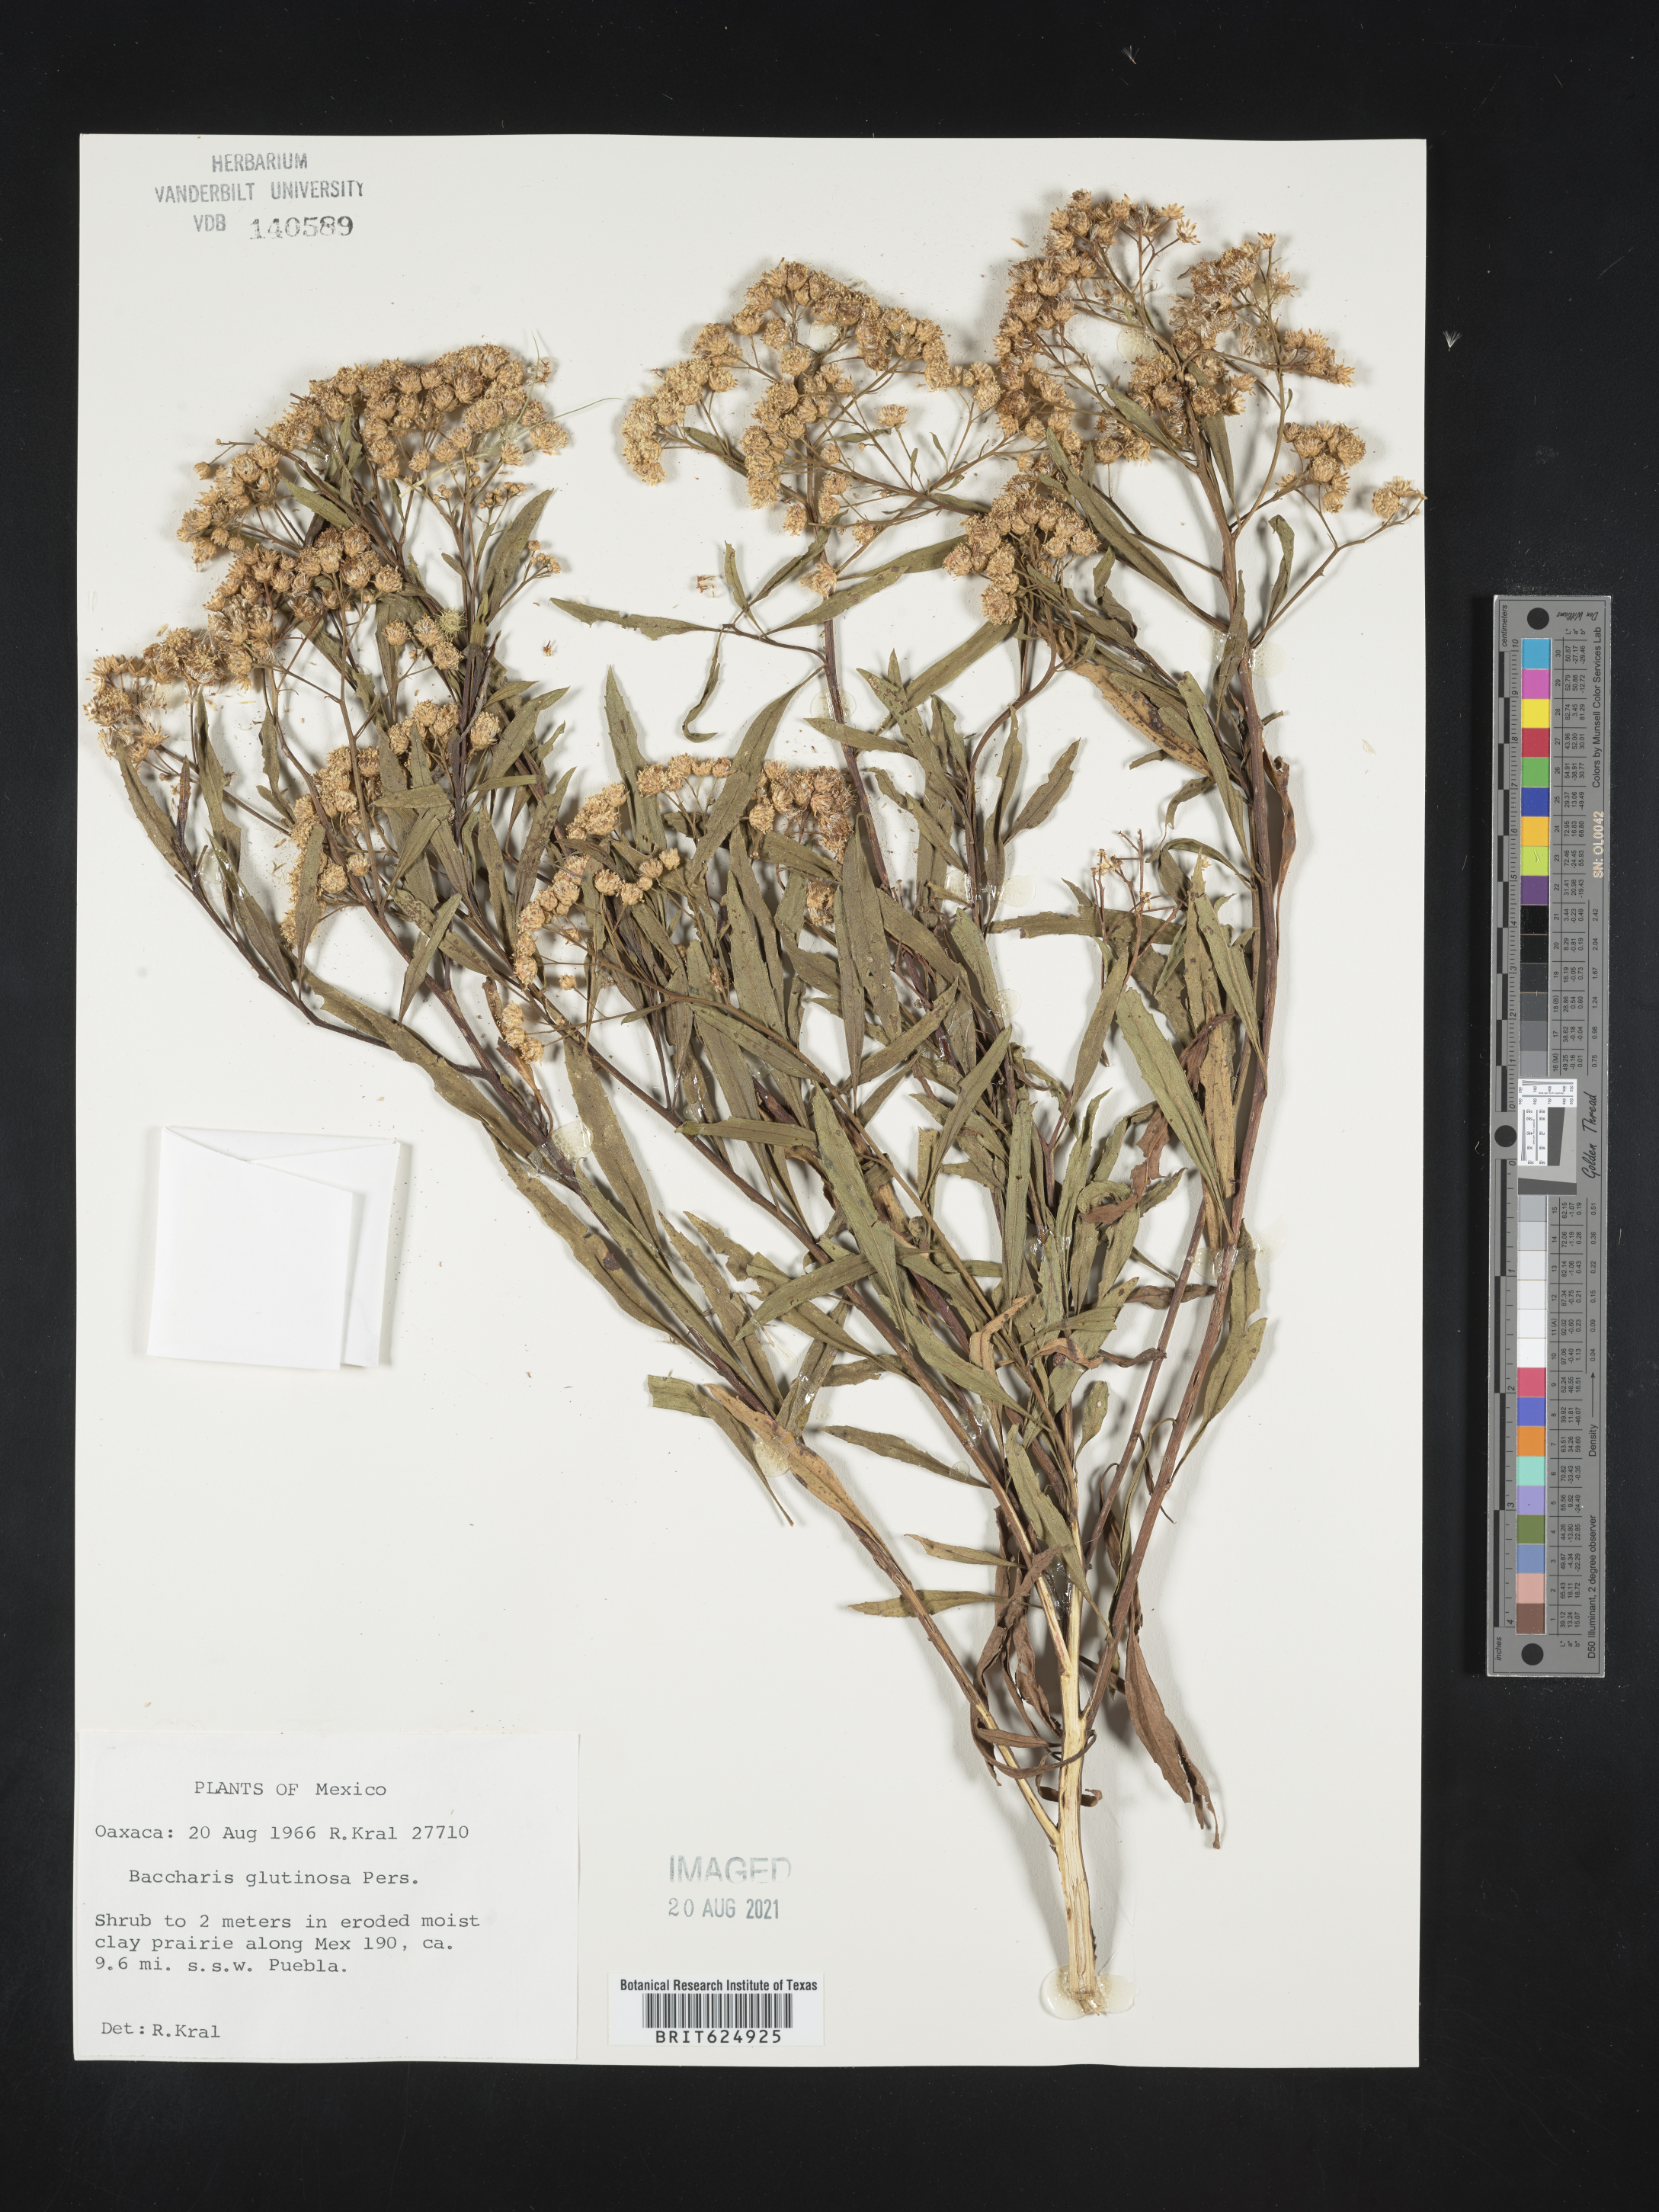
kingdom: Plantae
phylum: Tracheophyta
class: Magnoliopsida
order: Asterales
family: Asteraceae
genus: Baccharis
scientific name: Baccharis
